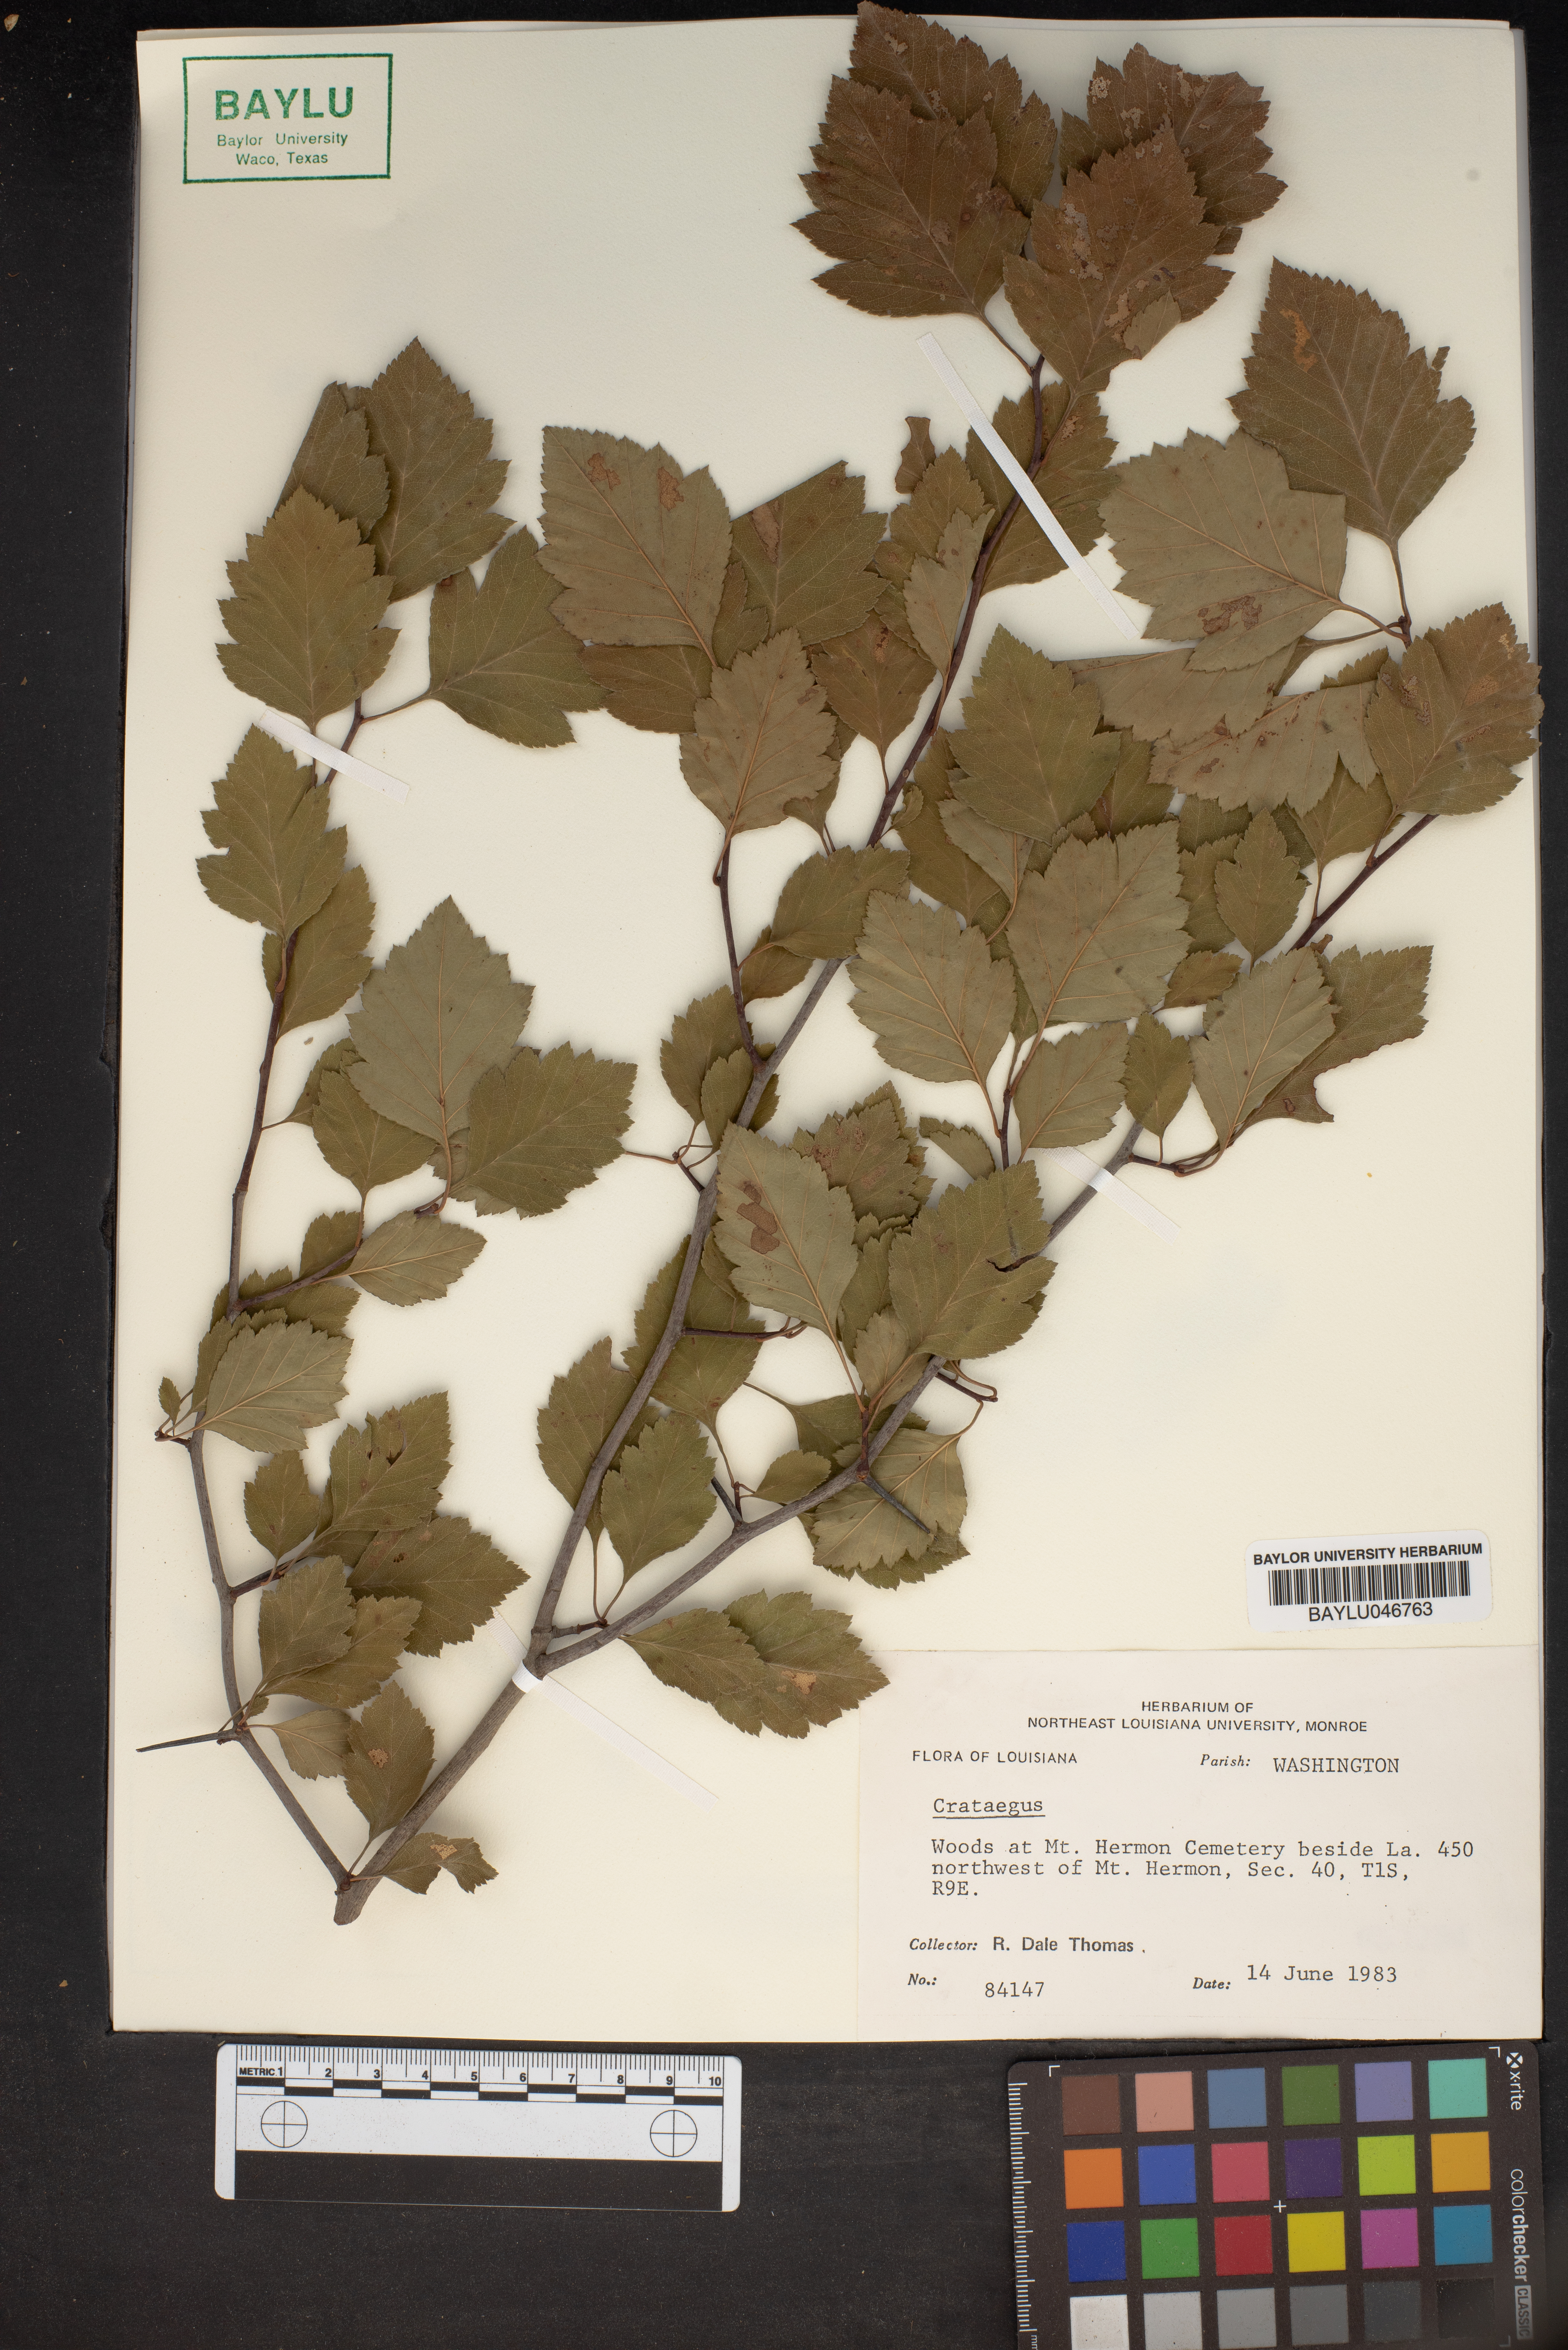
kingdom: Plantae
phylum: Tracheophyta
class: Magnoliopsida
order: Rosales
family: Rosaceae
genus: Crataegus
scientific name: Crataegus
